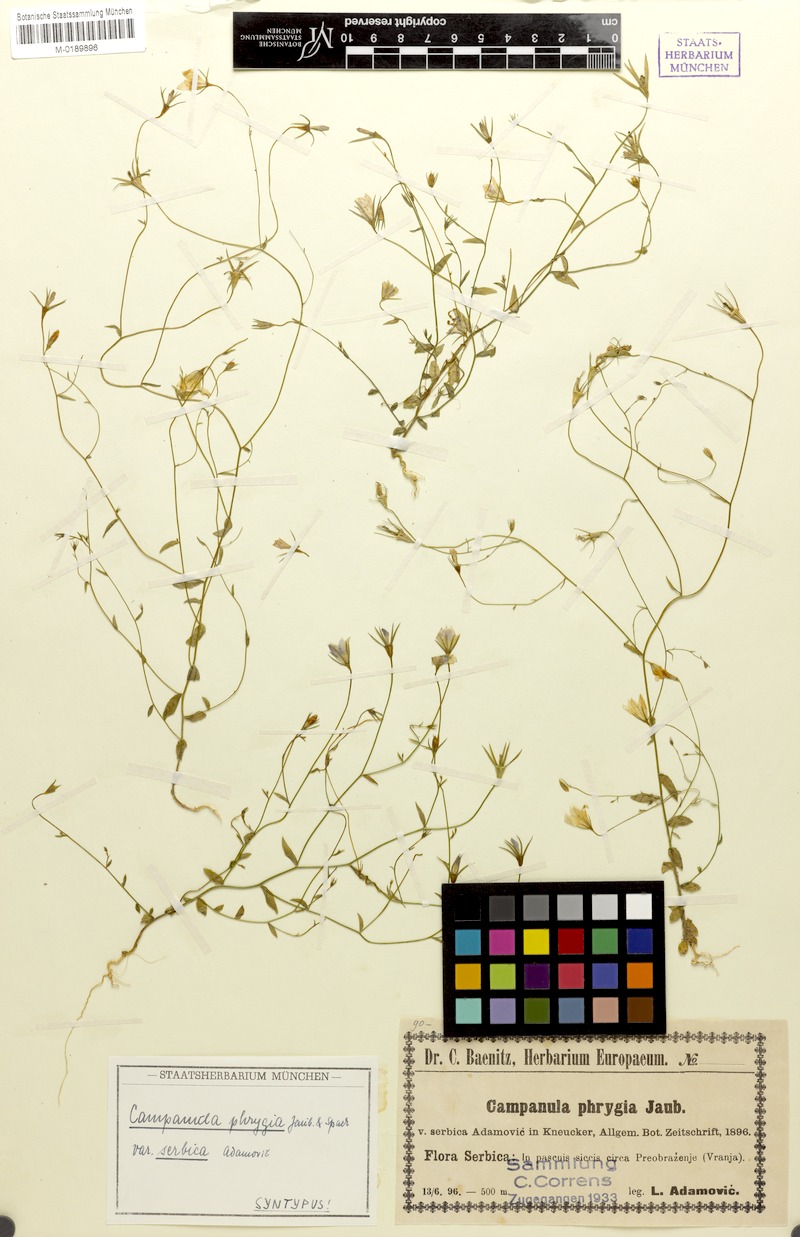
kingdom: Plantae
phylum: Tracheophyta
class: Magnoliopsida
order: Asterales
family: Campanulaceae
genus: Campanula
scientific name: Campanula phrygia
